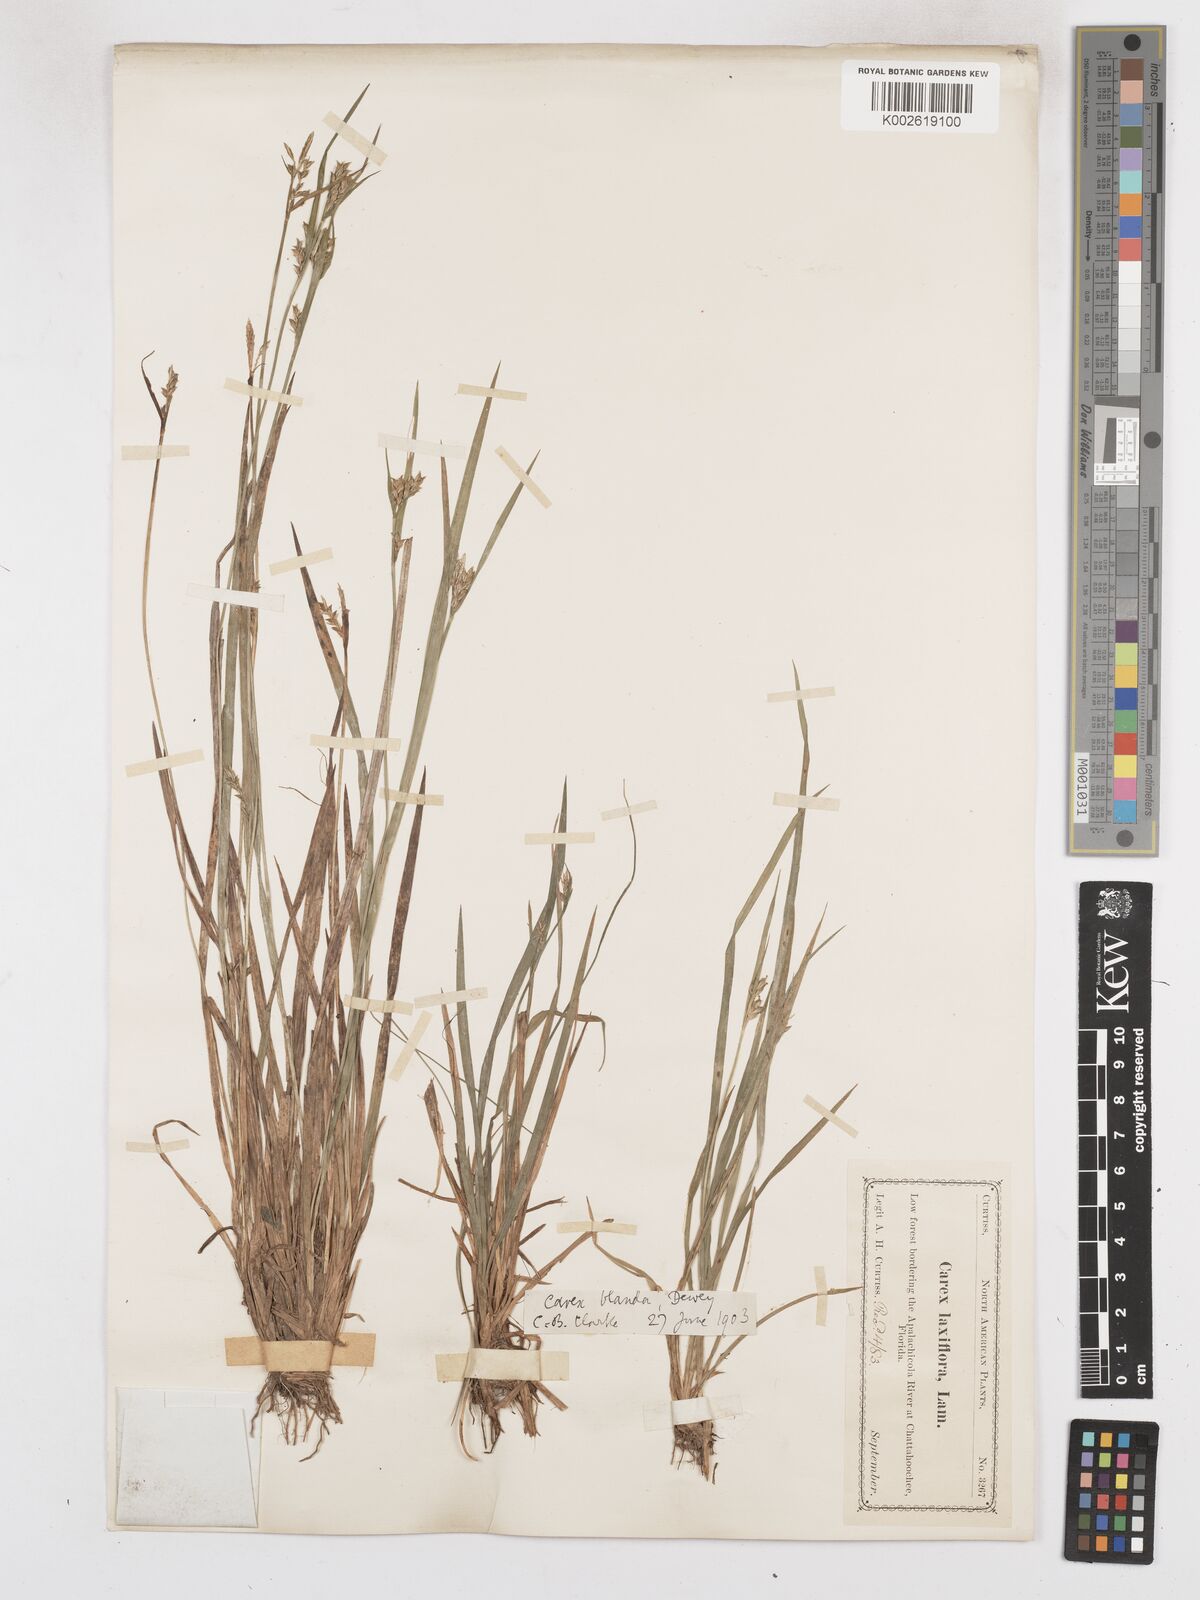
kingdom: Plantae
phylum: Tracheophyta
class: Liliopsida
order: Poales
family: Cyperaceae
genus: Carex
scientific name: Carex blanda
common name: Bland sedge
